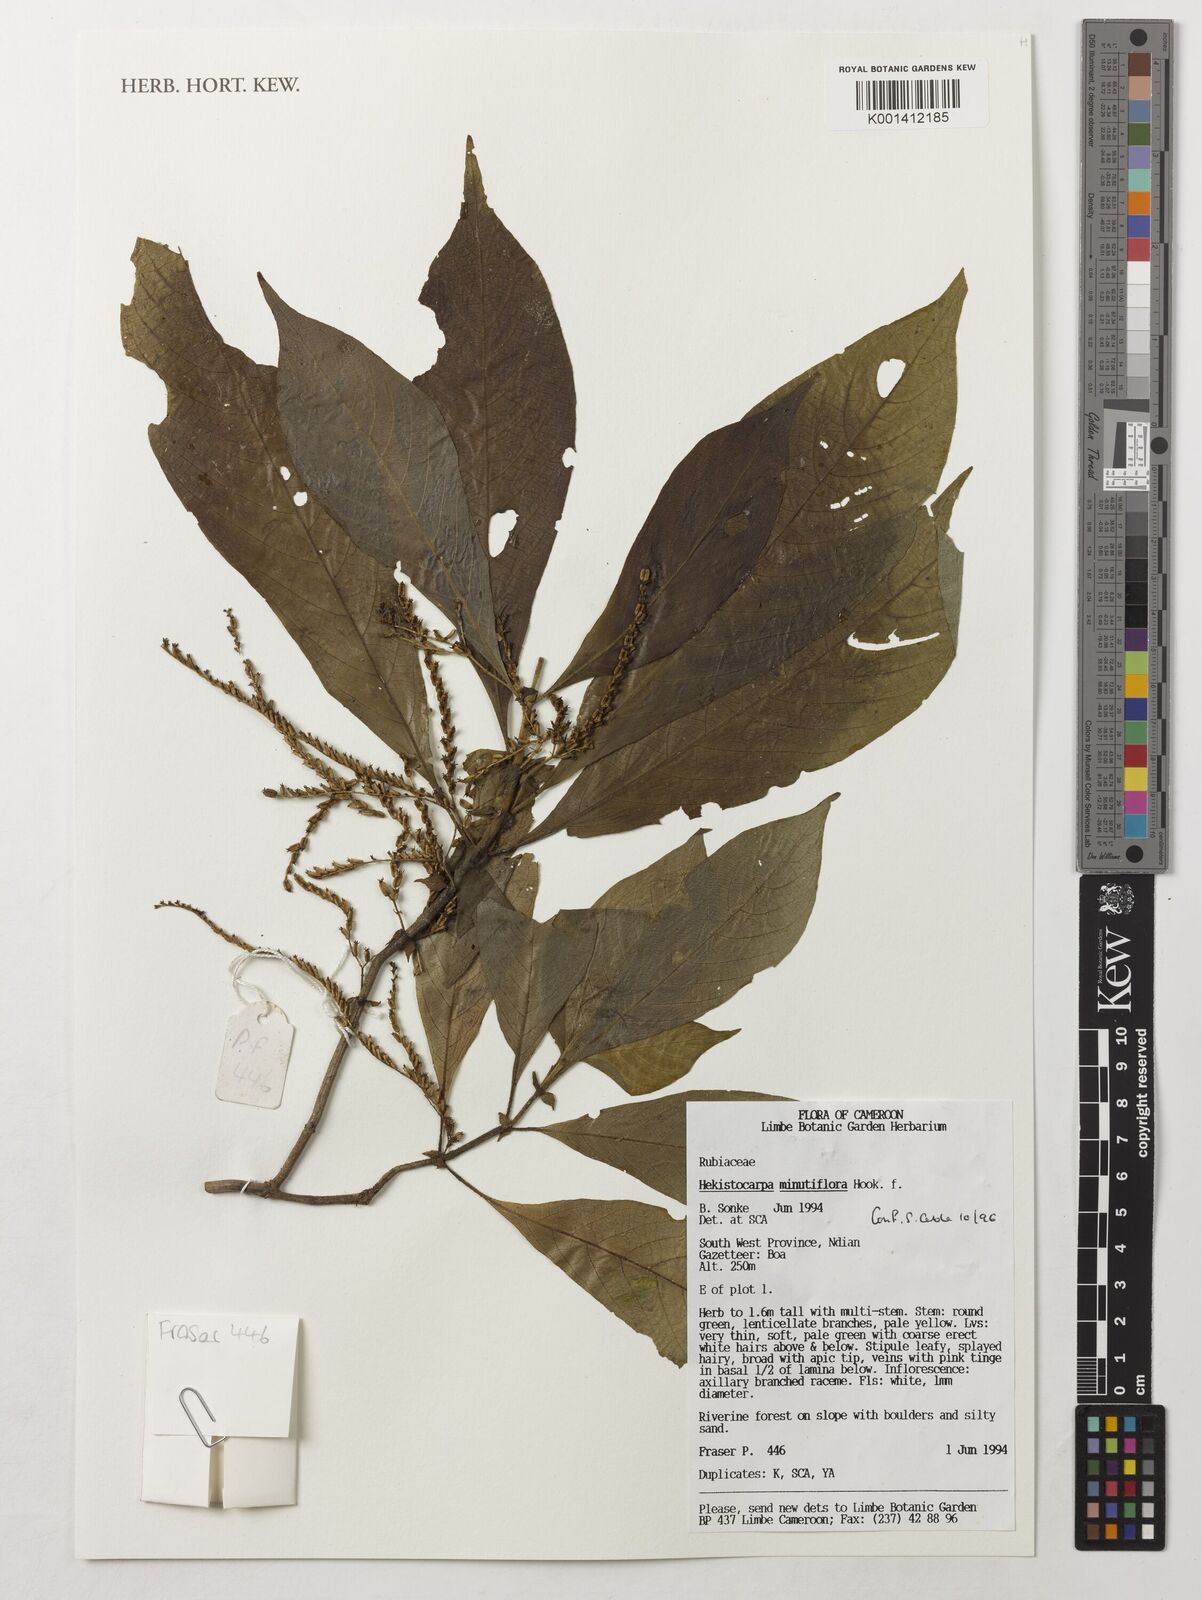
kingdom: Plantae
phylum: Tracheophyta
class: Magnoliopsida
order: Gentianales
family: Rubiaceae
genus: Hekistocarpa
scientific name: Hekistocarpa minutiflora
